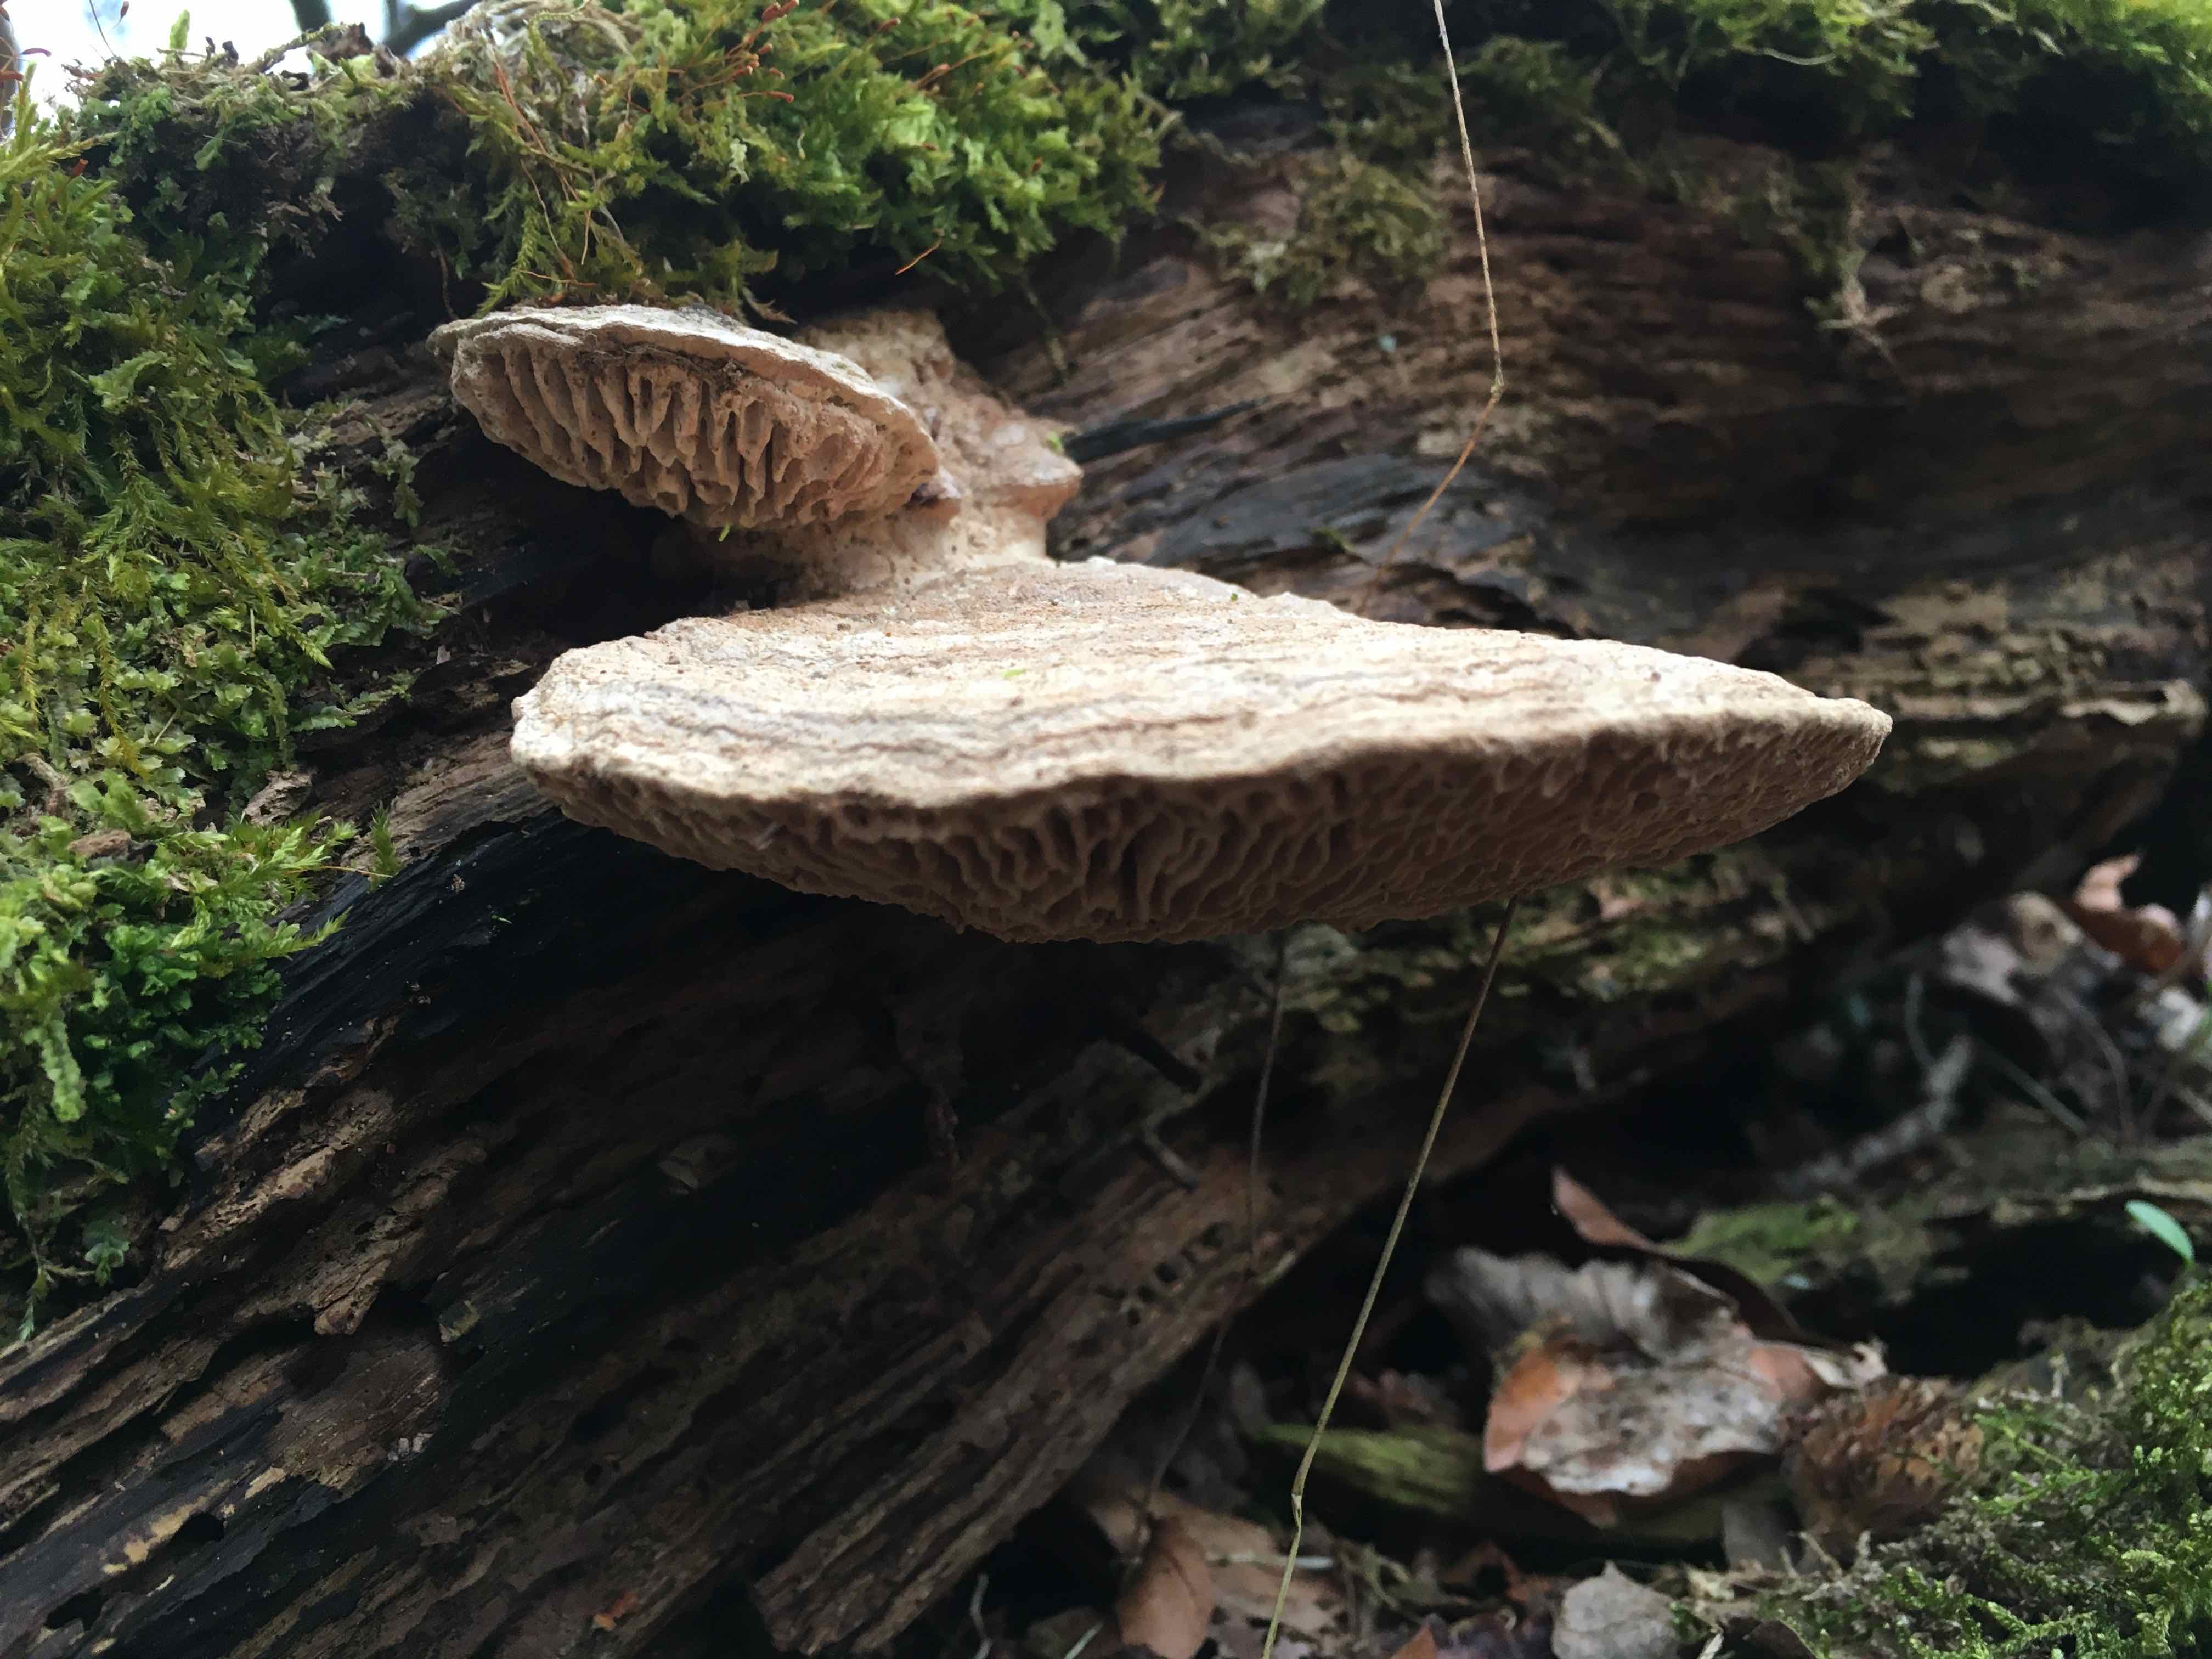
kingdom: Fungi
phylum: Basidiomycota
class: Agaricomycetes
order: Polyporales
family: Fomitopsidaceae
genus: Daedalea
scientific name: Daedalea quercina
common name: ege-labyrintsvamp
